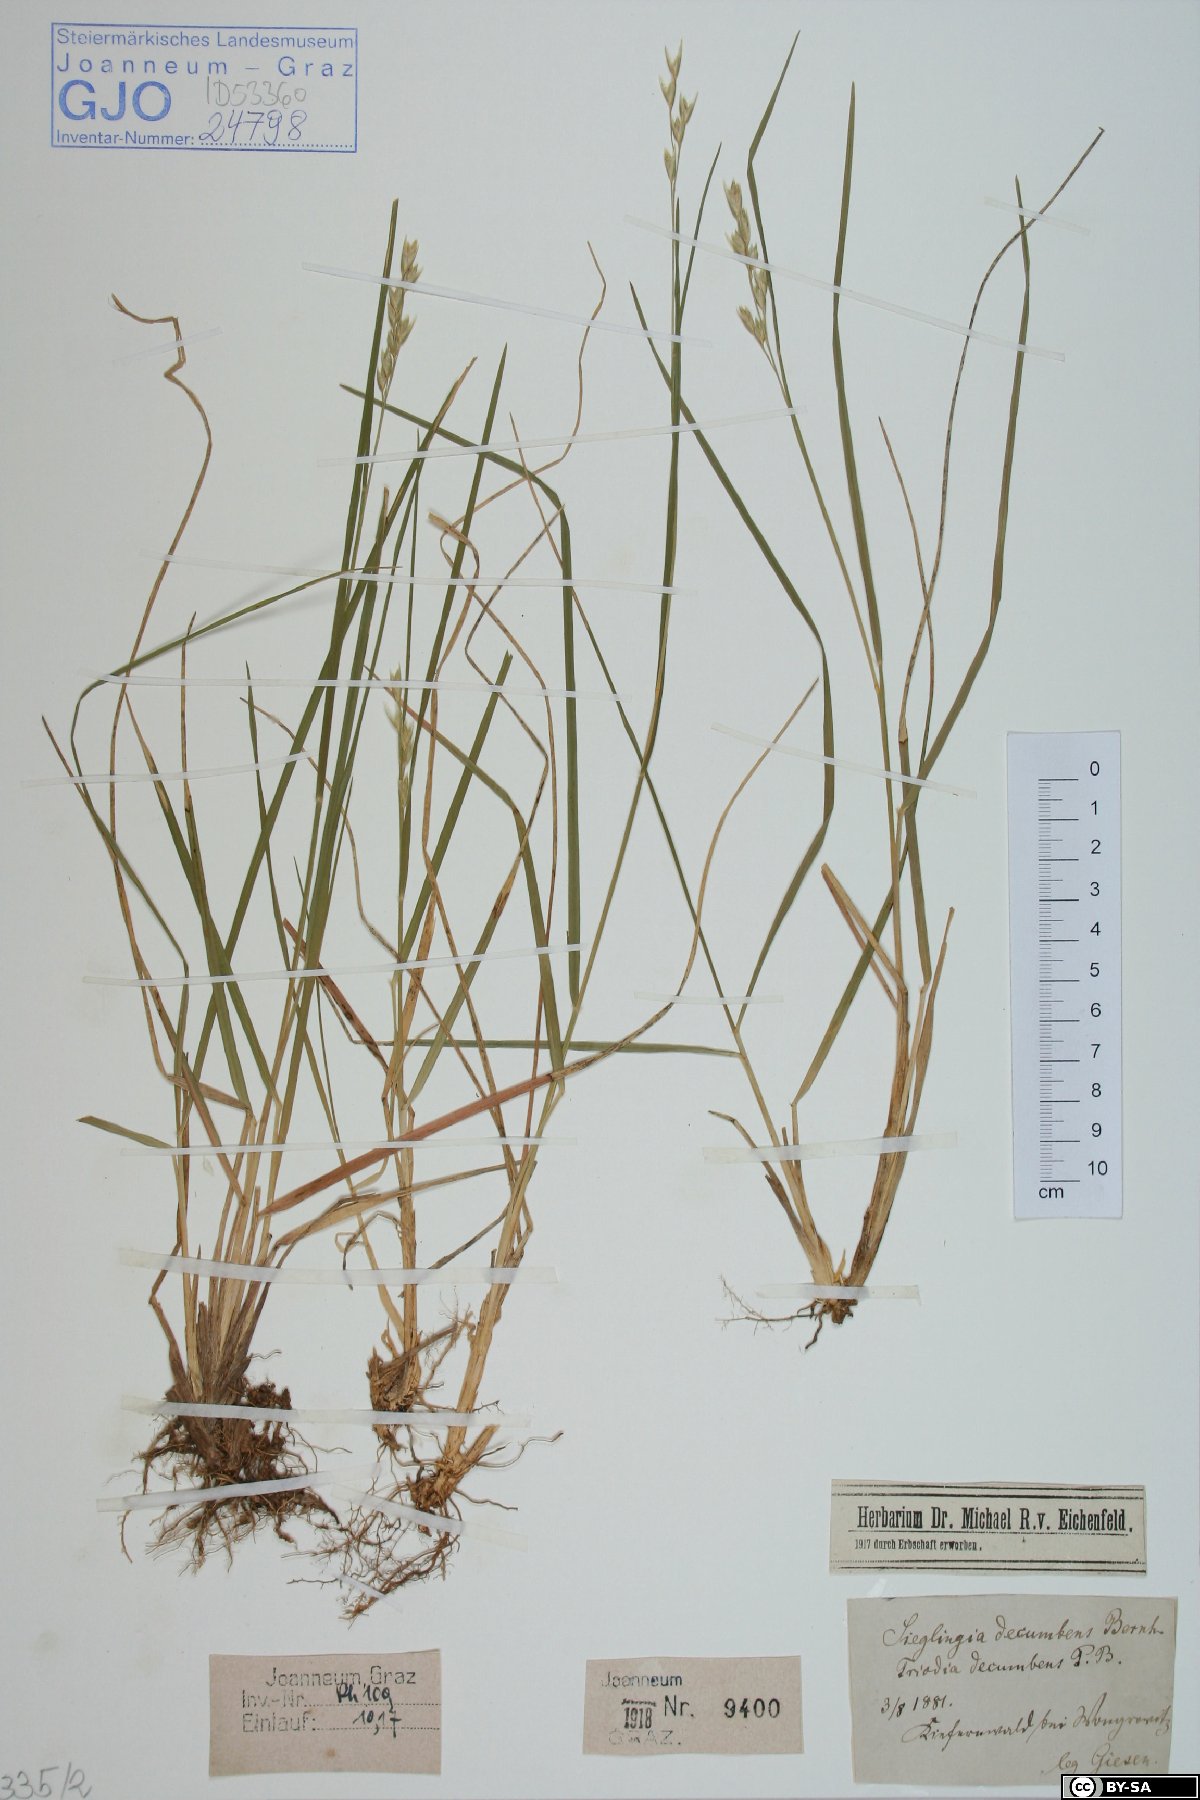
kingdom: Plantae
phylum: Tracheophyta
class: Liliopsida
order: Poales
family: Poaceae
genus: Danthonia
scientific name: Danthonia decumbens
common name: Common heathgrass
